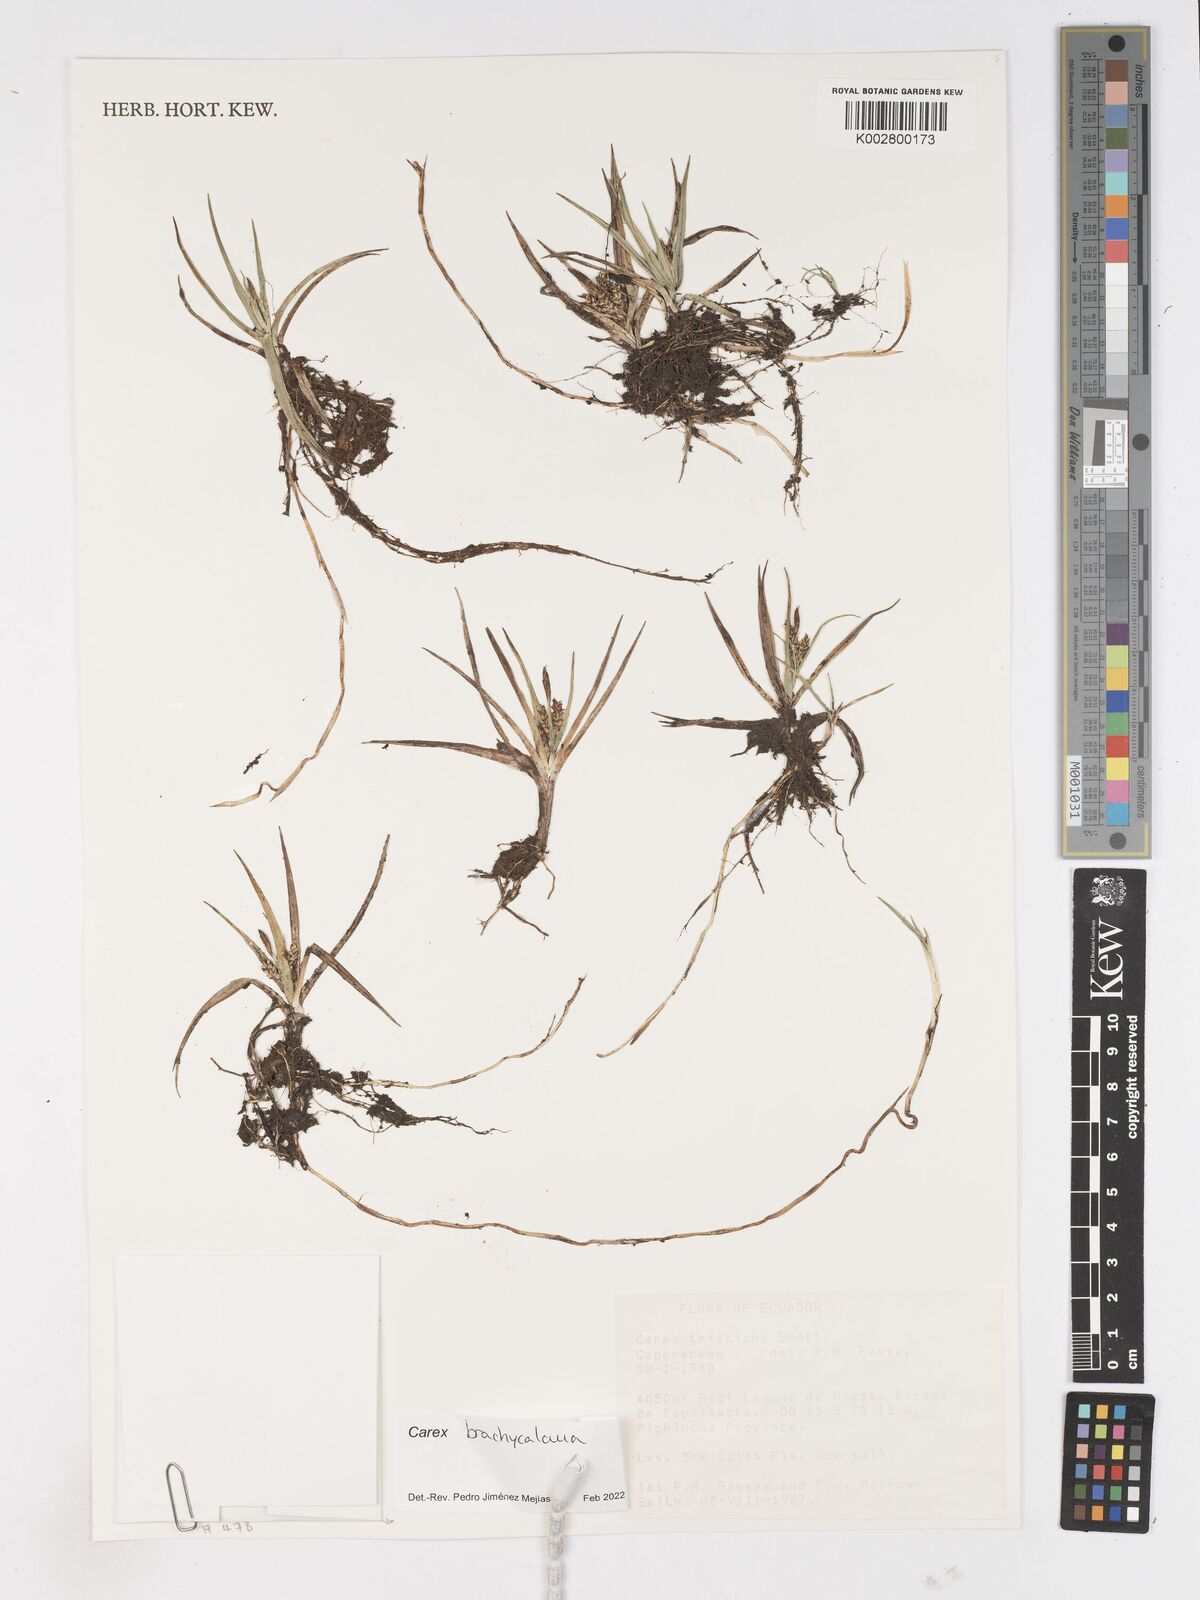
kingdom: Plantae
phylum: Tracheophyta
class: Liliopsida
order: Poales
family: Cyperaceae
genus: Carex
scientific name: Carex brachycalama
